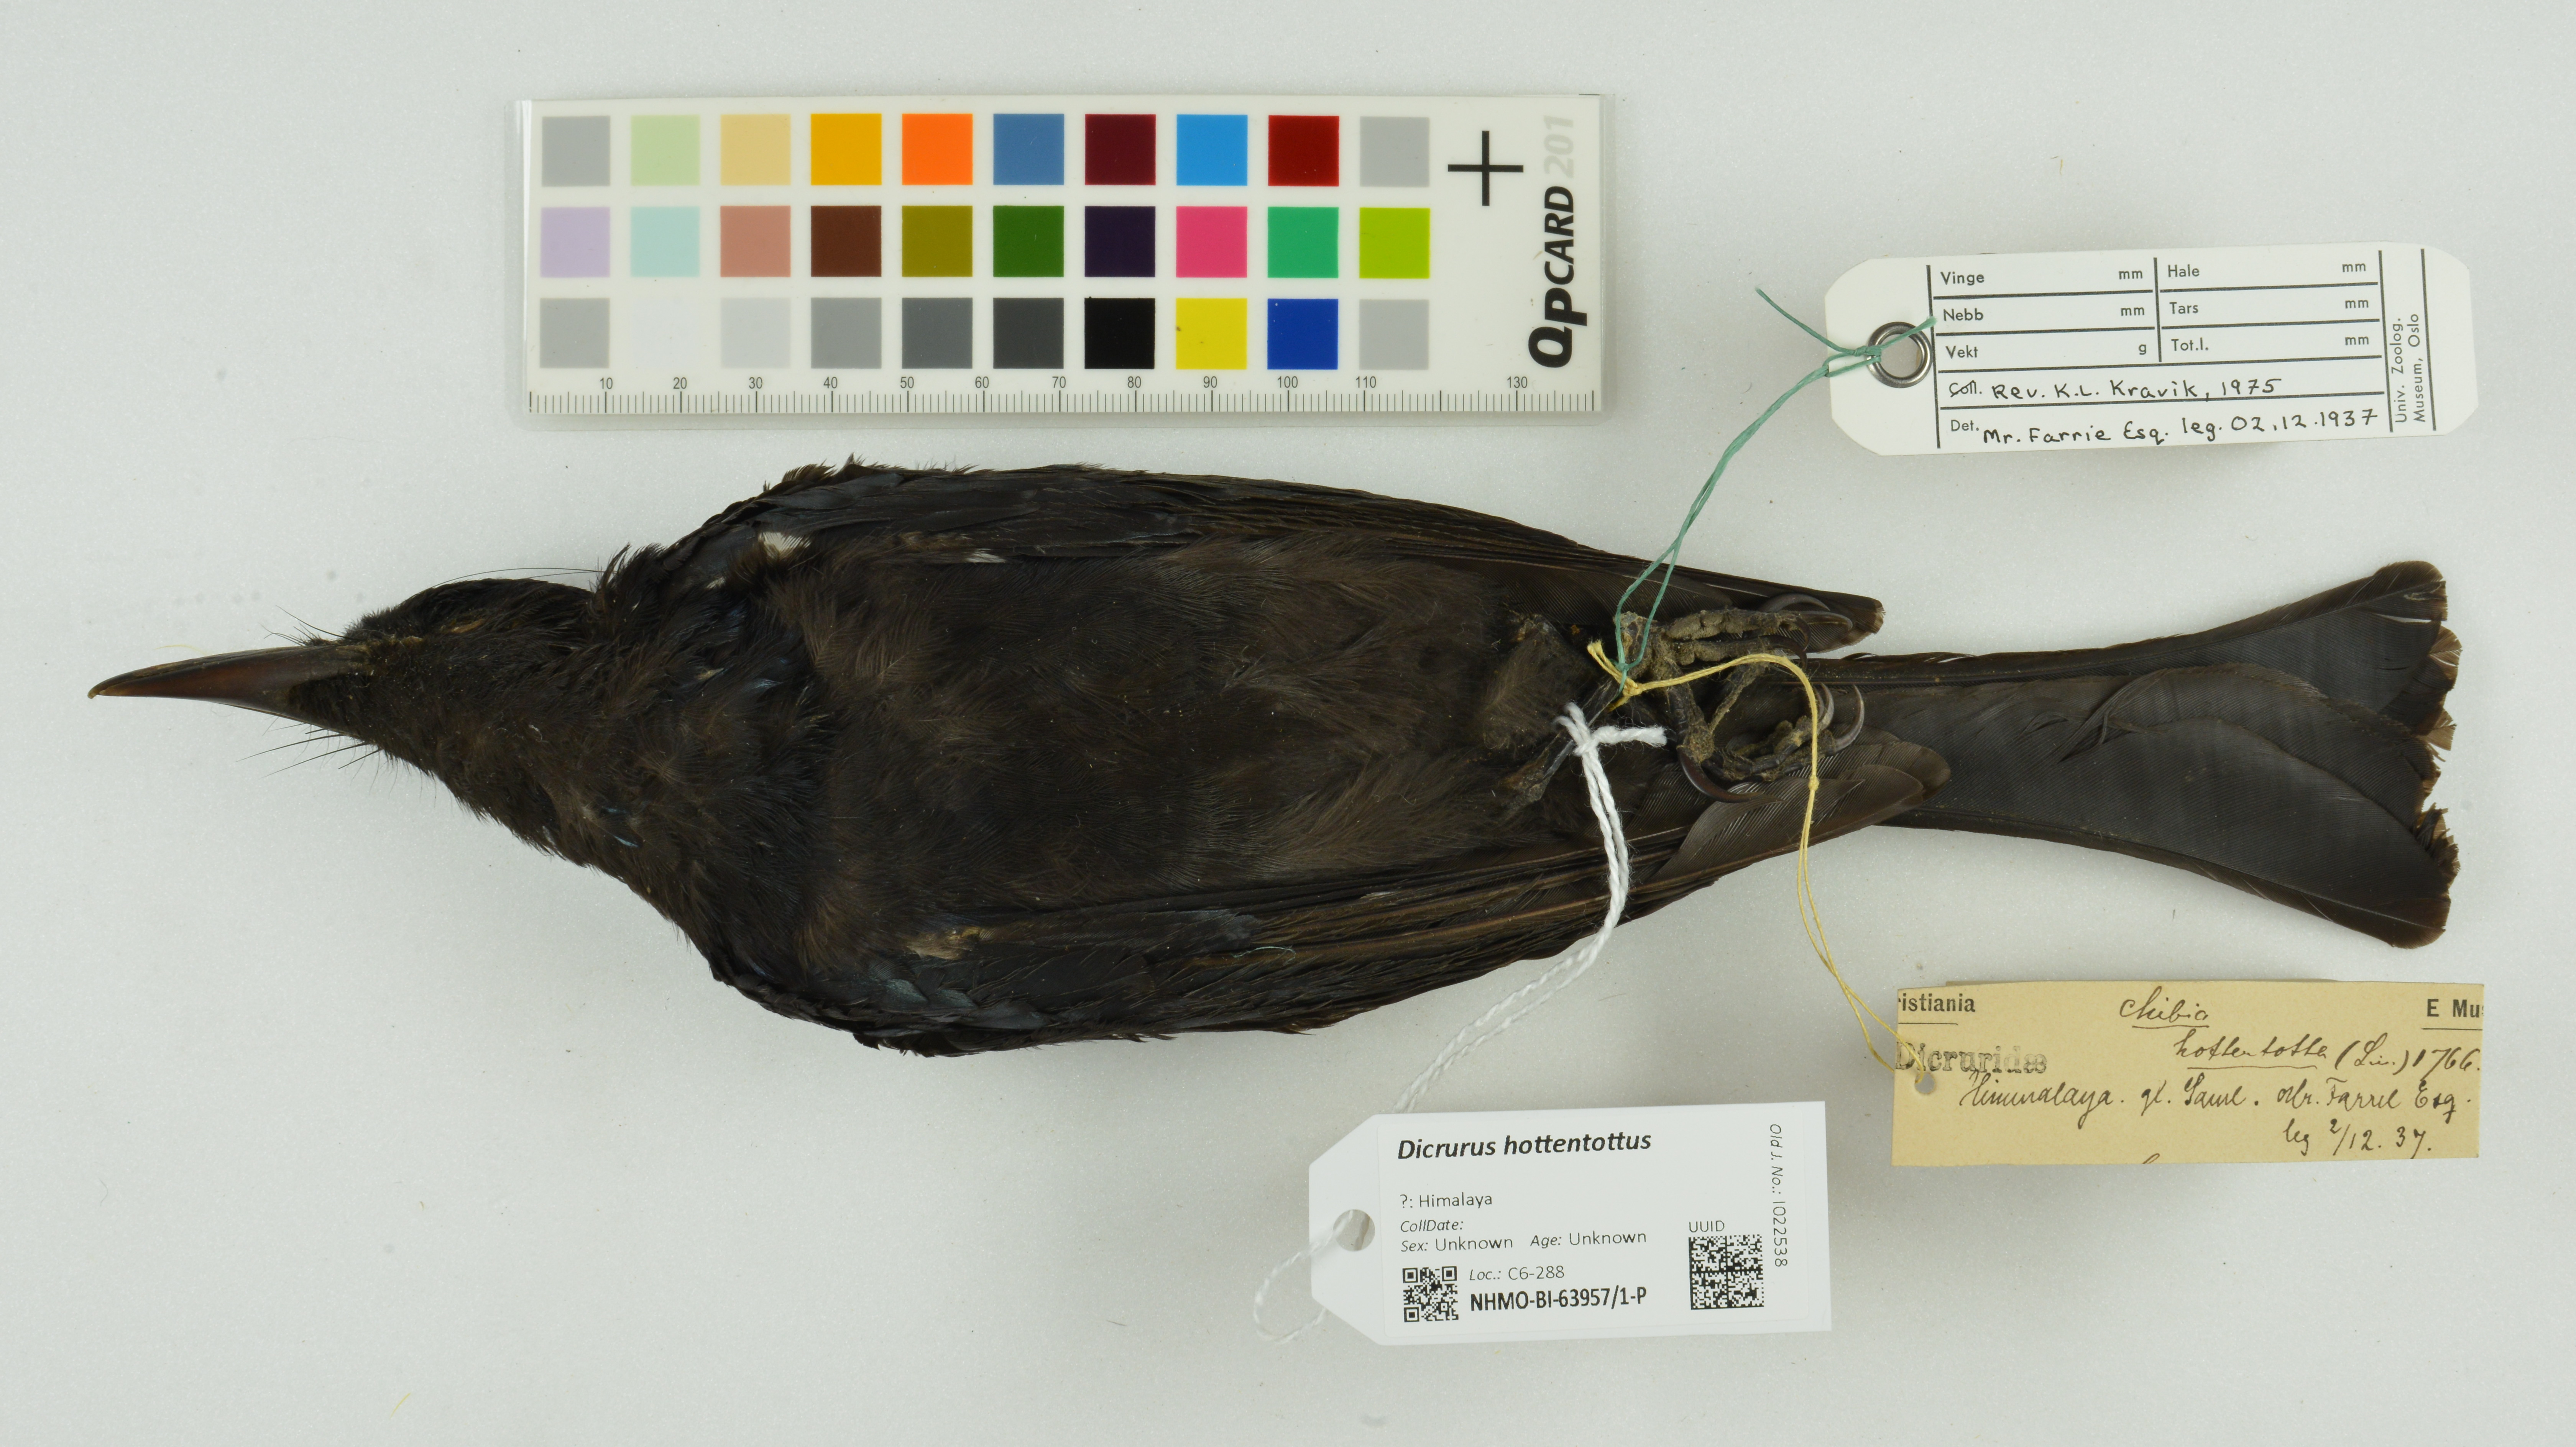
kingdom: Animalia
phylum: Chordata
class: Aves
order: Passeriformes
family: Dicruridae
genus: Dicrurus
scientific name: Dicrurus hottentottus
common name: Hair-crested drongo
